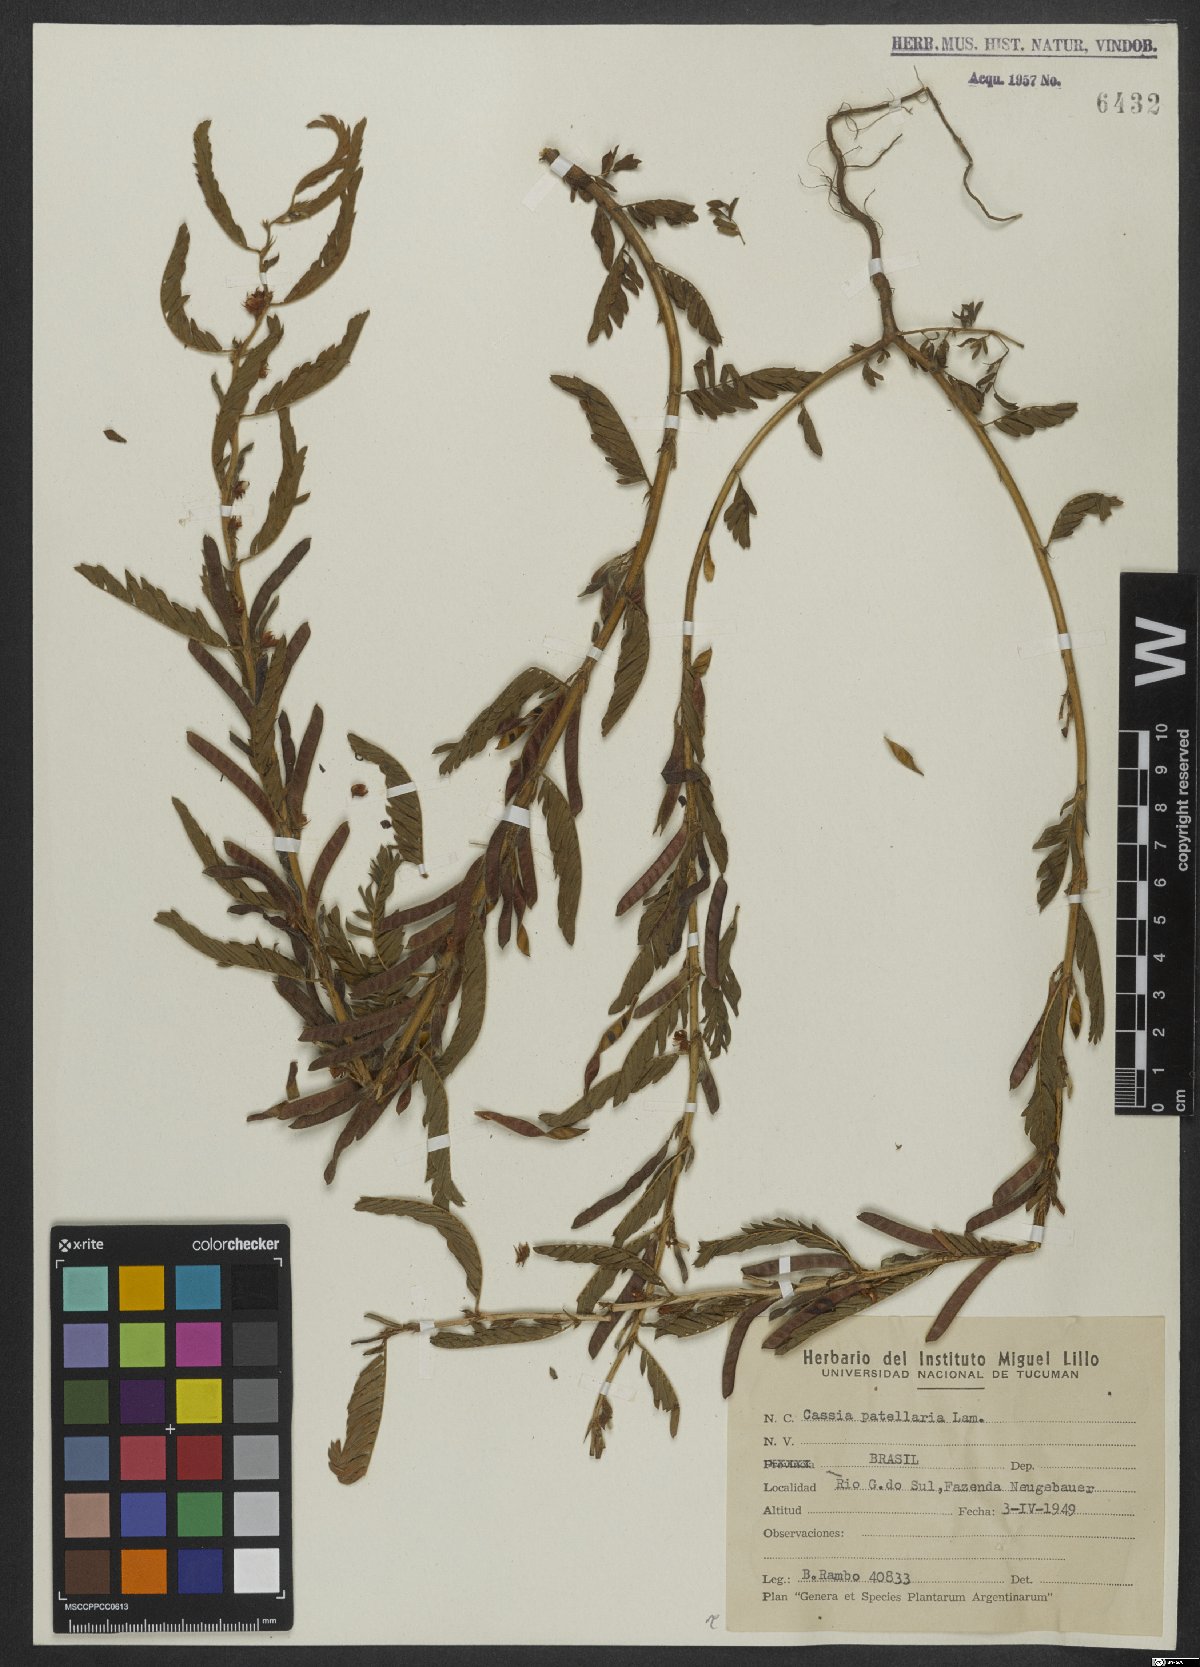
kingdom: Plantae
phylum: Tracheophyta
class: Magnoliopsida
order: Fabales
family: Fabaceae
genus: Chamaecrista
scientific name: Chamaecrista nictitans
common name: Sensitive cassia
